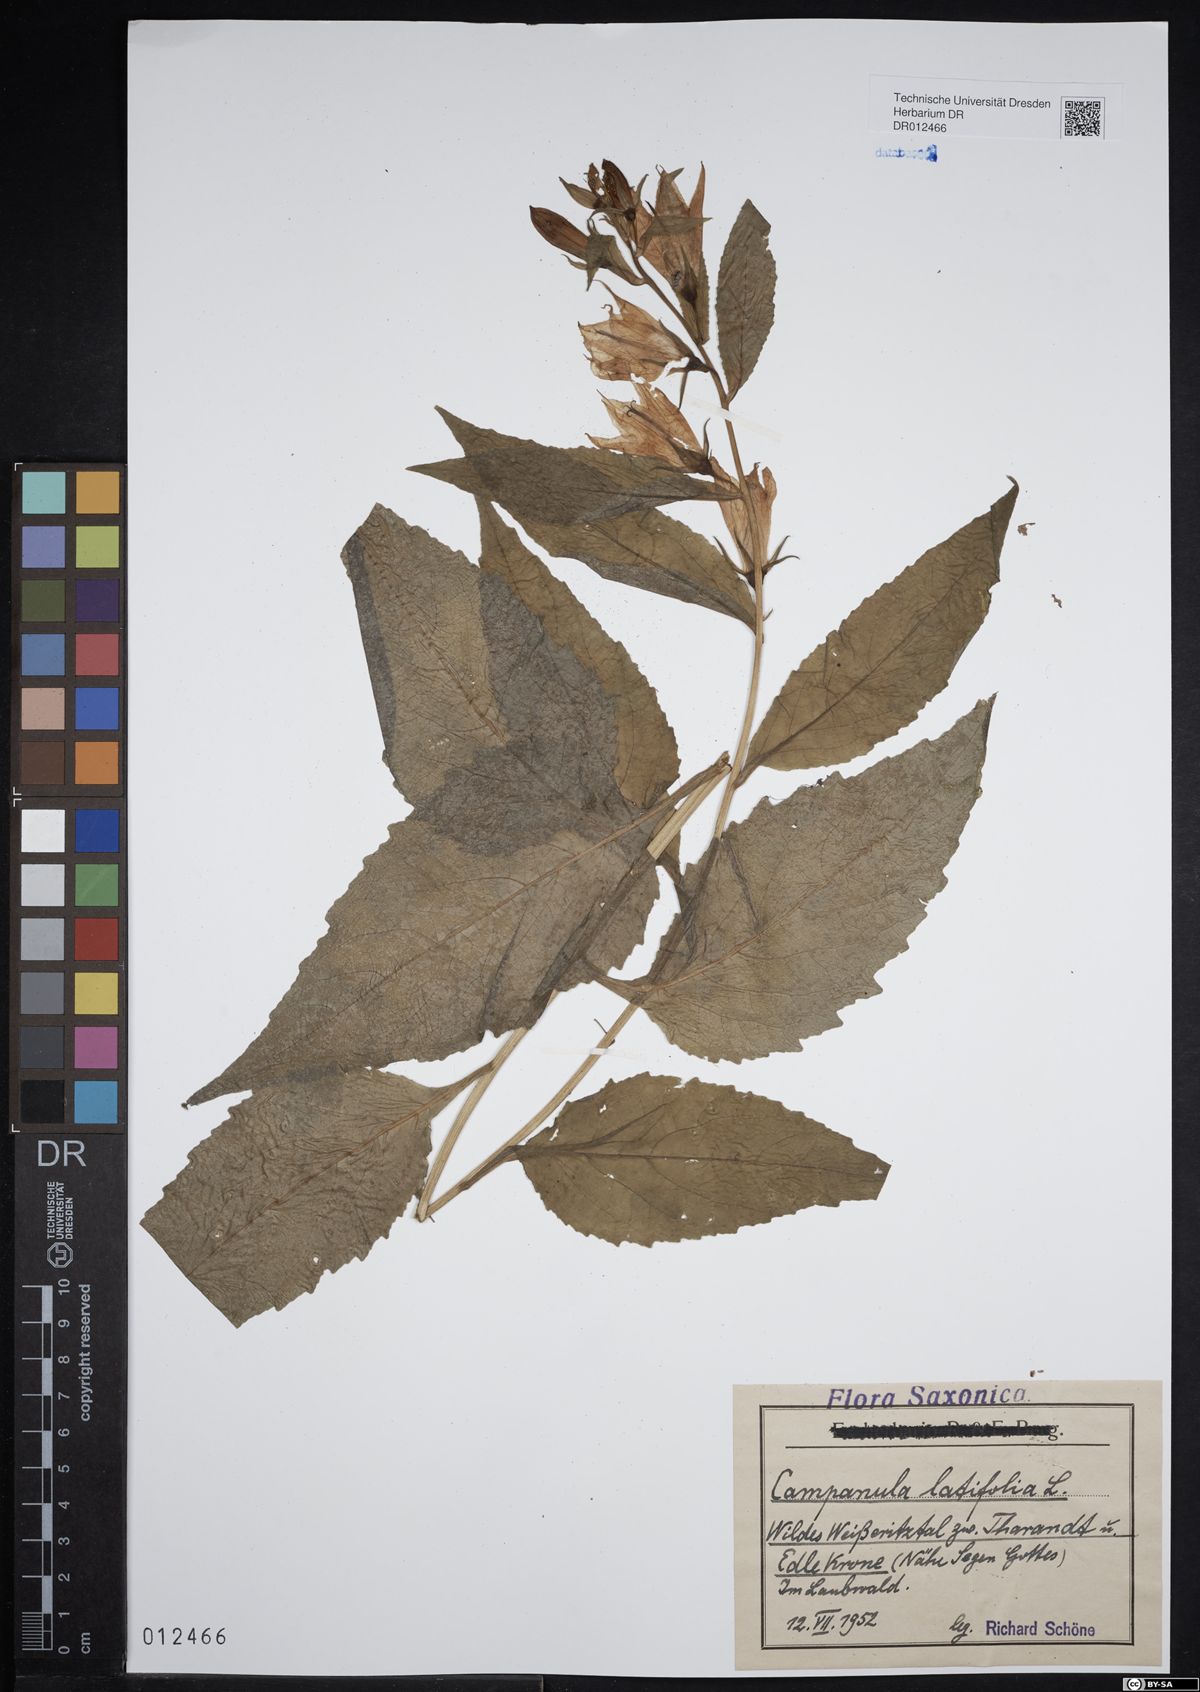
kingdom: Plantae
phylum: Tracheophyta
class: Magnoliopsida
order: Asterales
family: Campanulaceae
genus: Campanula
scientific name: Campanula latifolia
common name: Giant bellflower
